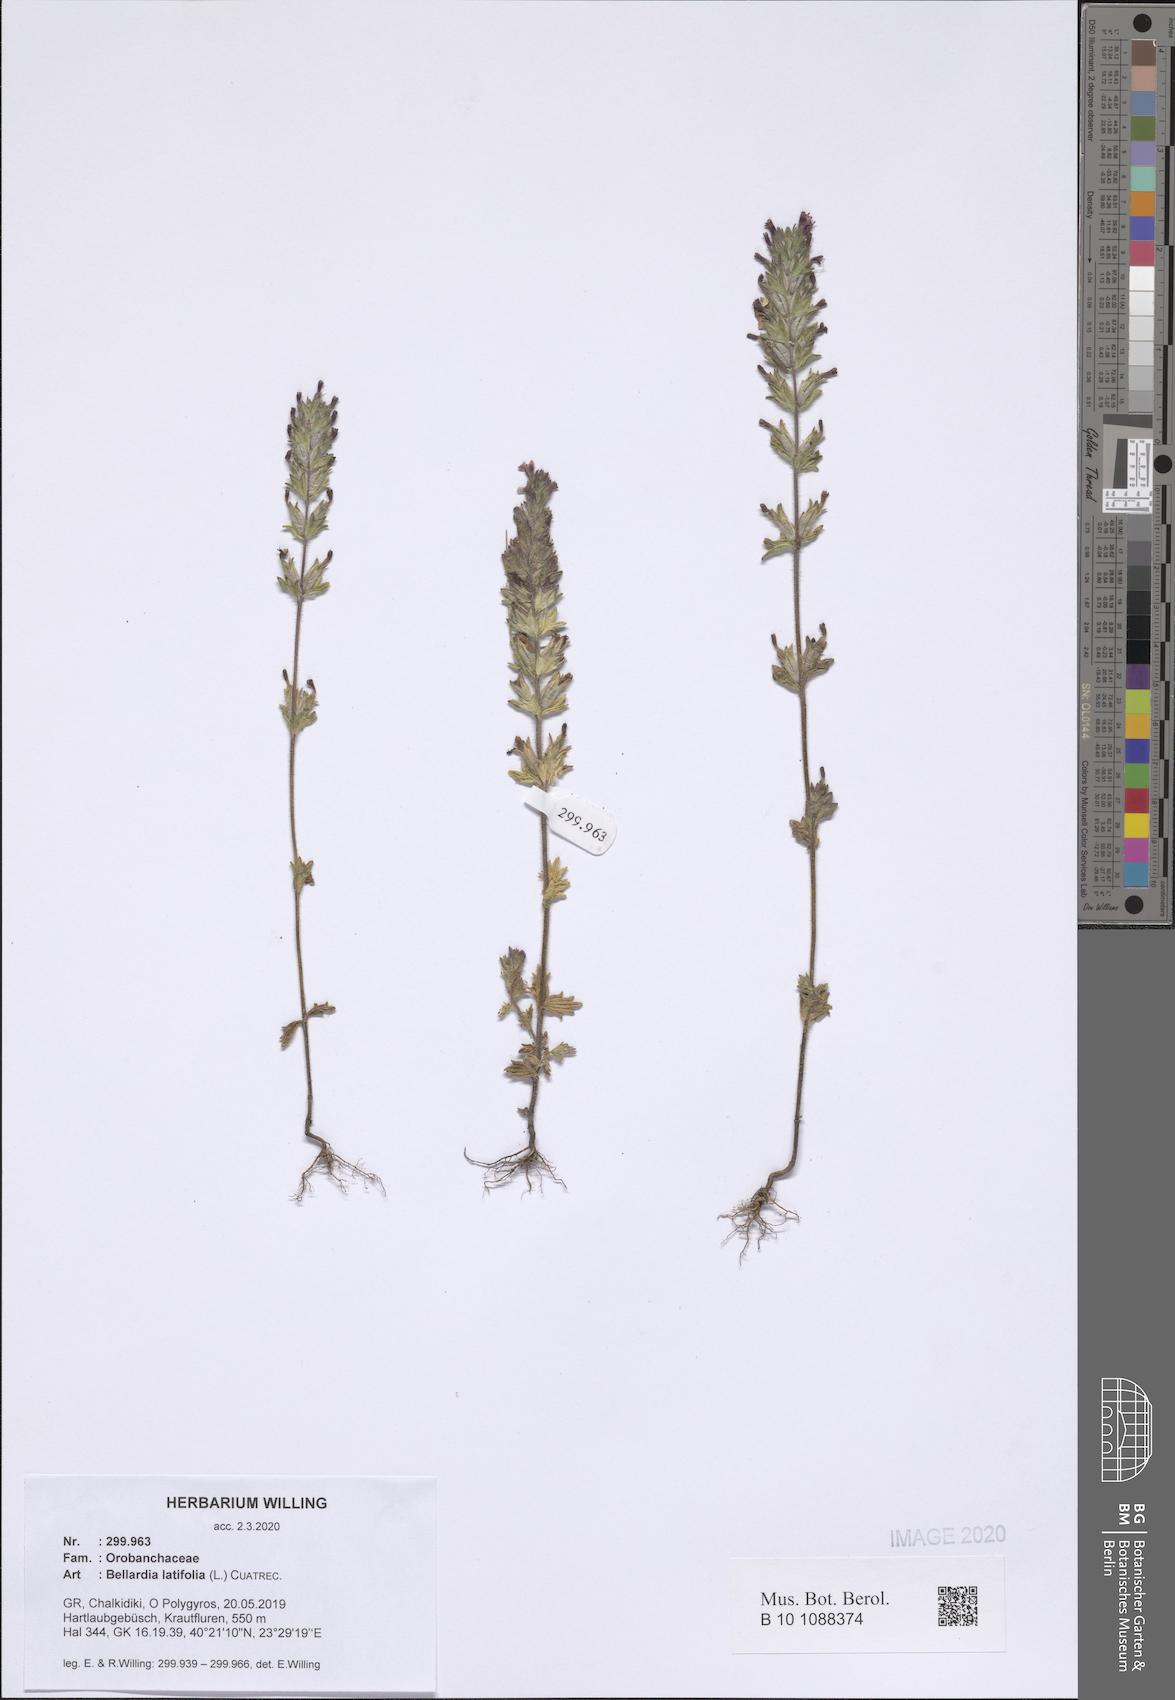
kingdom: Plantae
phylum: Tracheophyta
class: Magnoliopsida
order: Lamiales
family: Orobanchaceae
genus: Parentucellia
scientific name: Parentucellia latifolia
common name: Broadleaf glandweed
